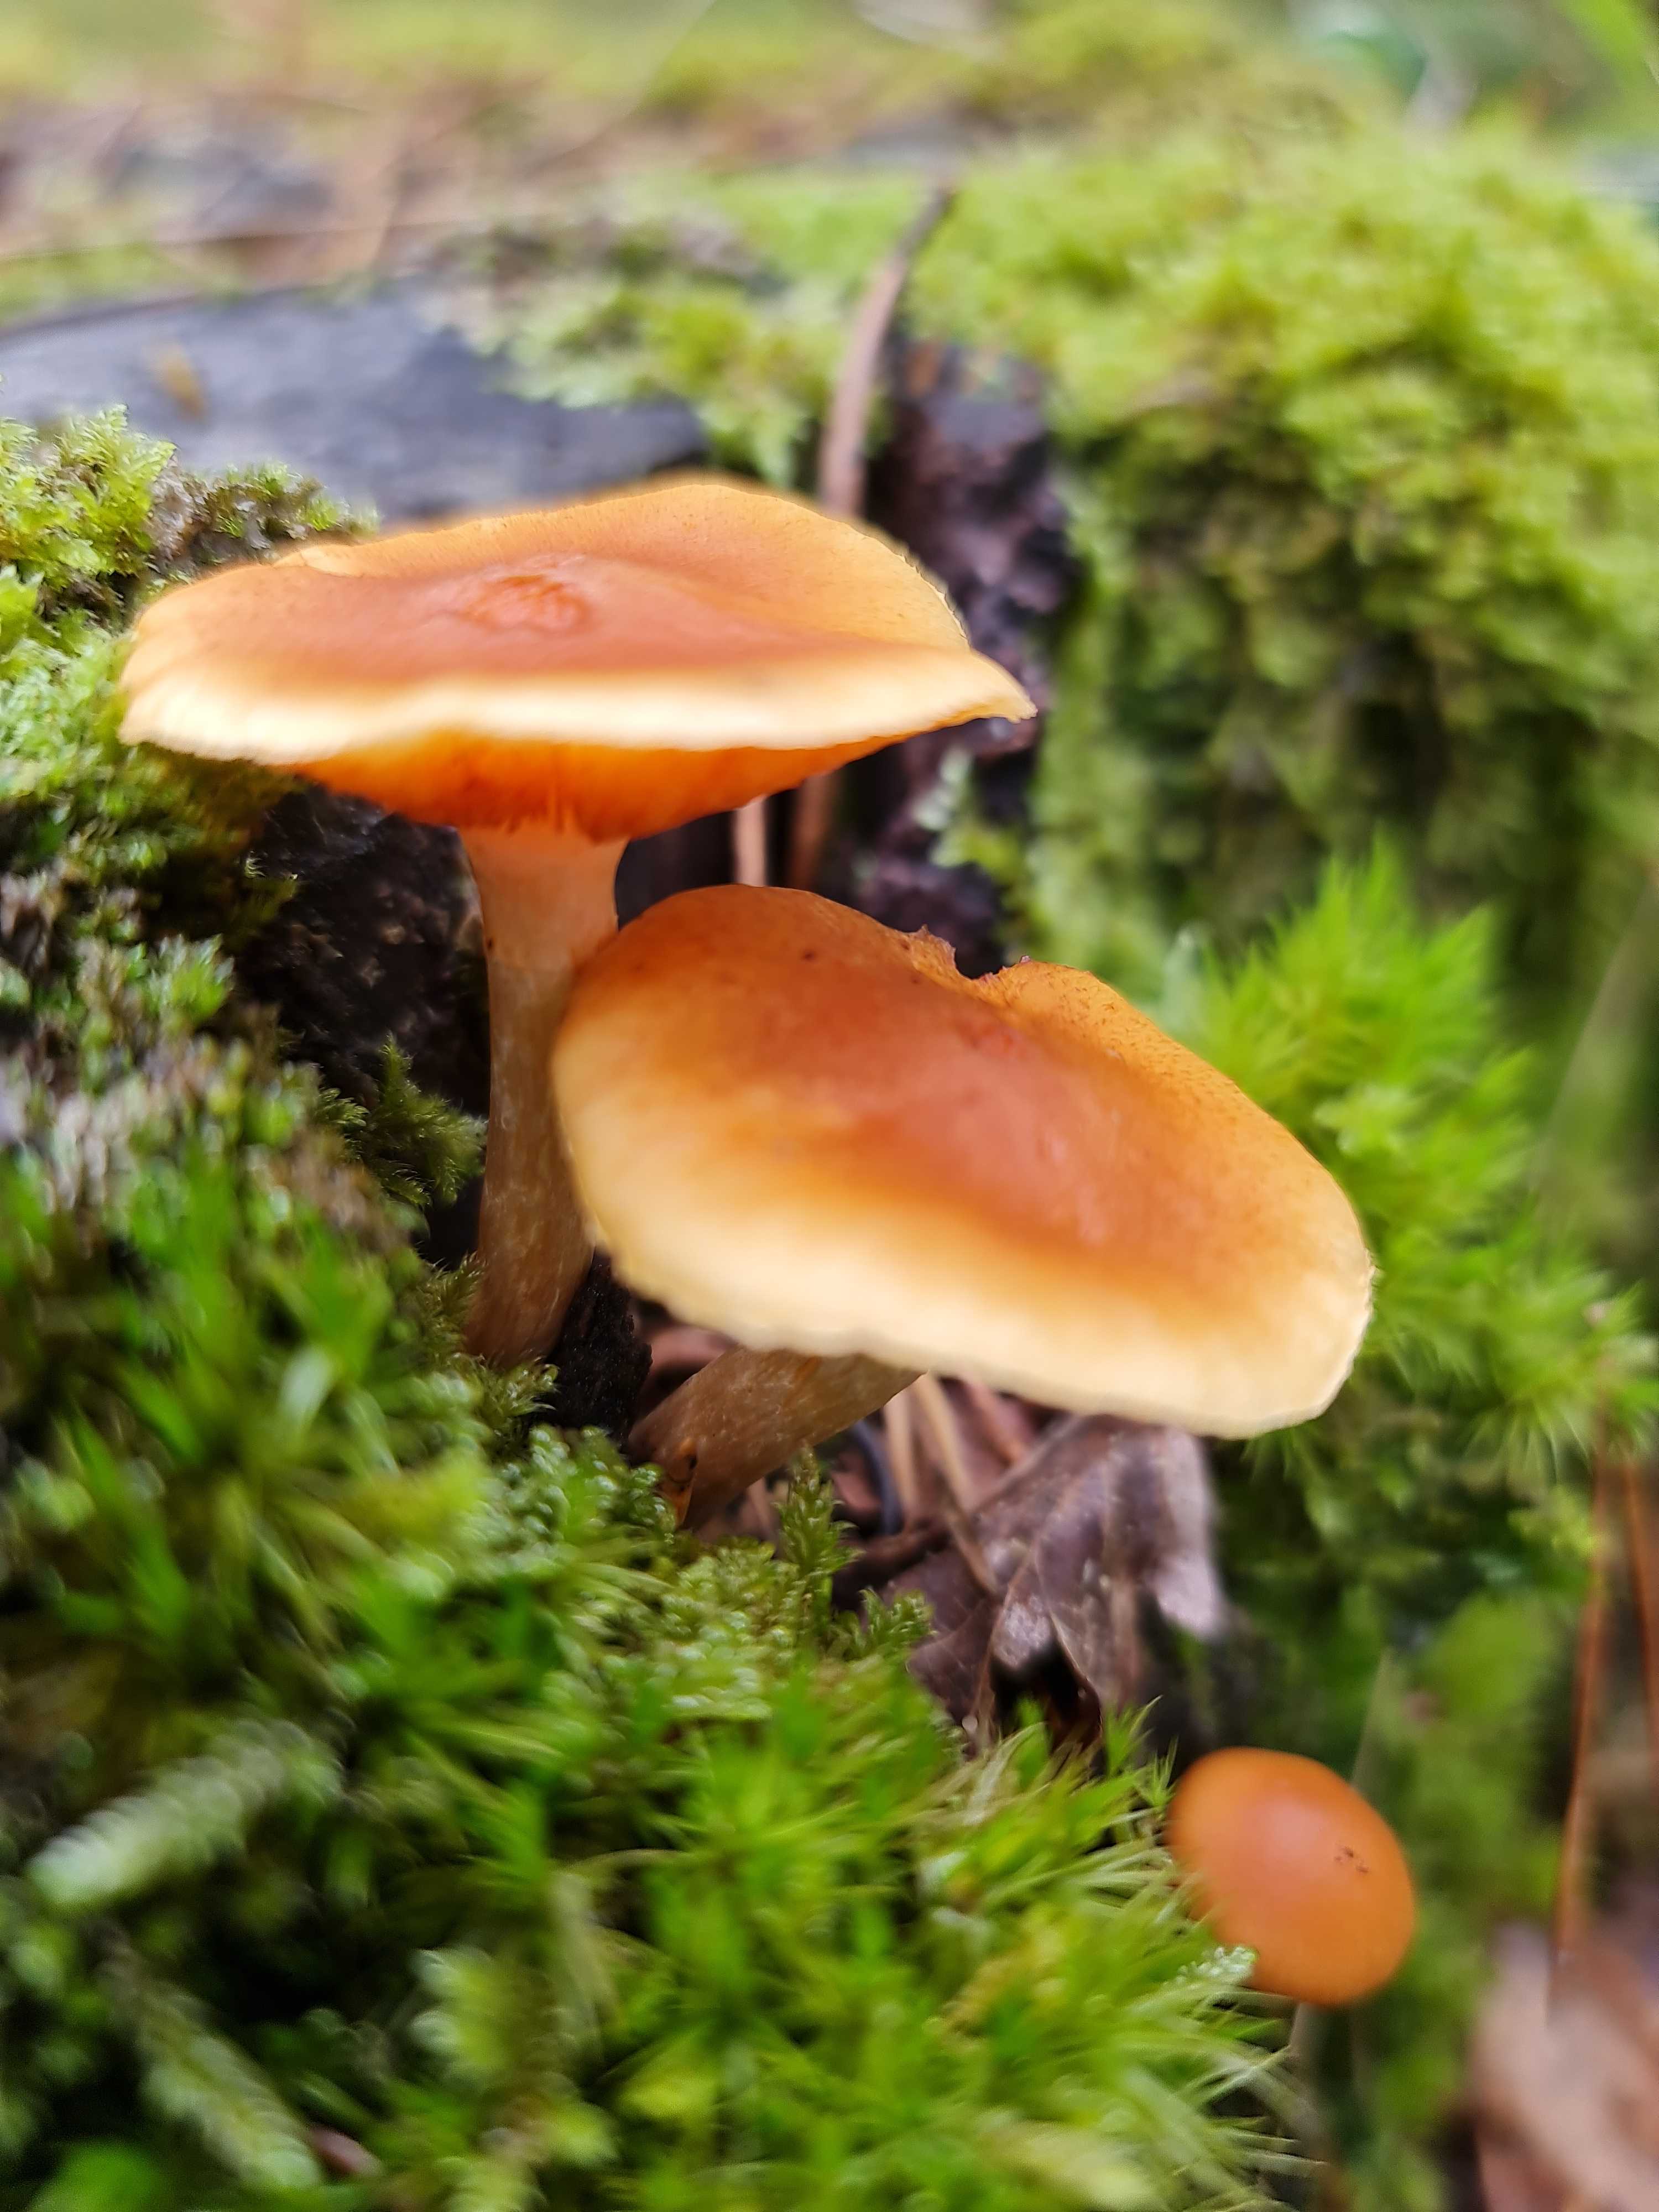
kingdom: Fungi
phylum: Basidiomycota
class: Agaricomycetes
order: Agaricales
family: Hymenogastraceae
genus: Gymnopilus
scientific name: Gymnopilus penetrans
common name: plettet flammehat
